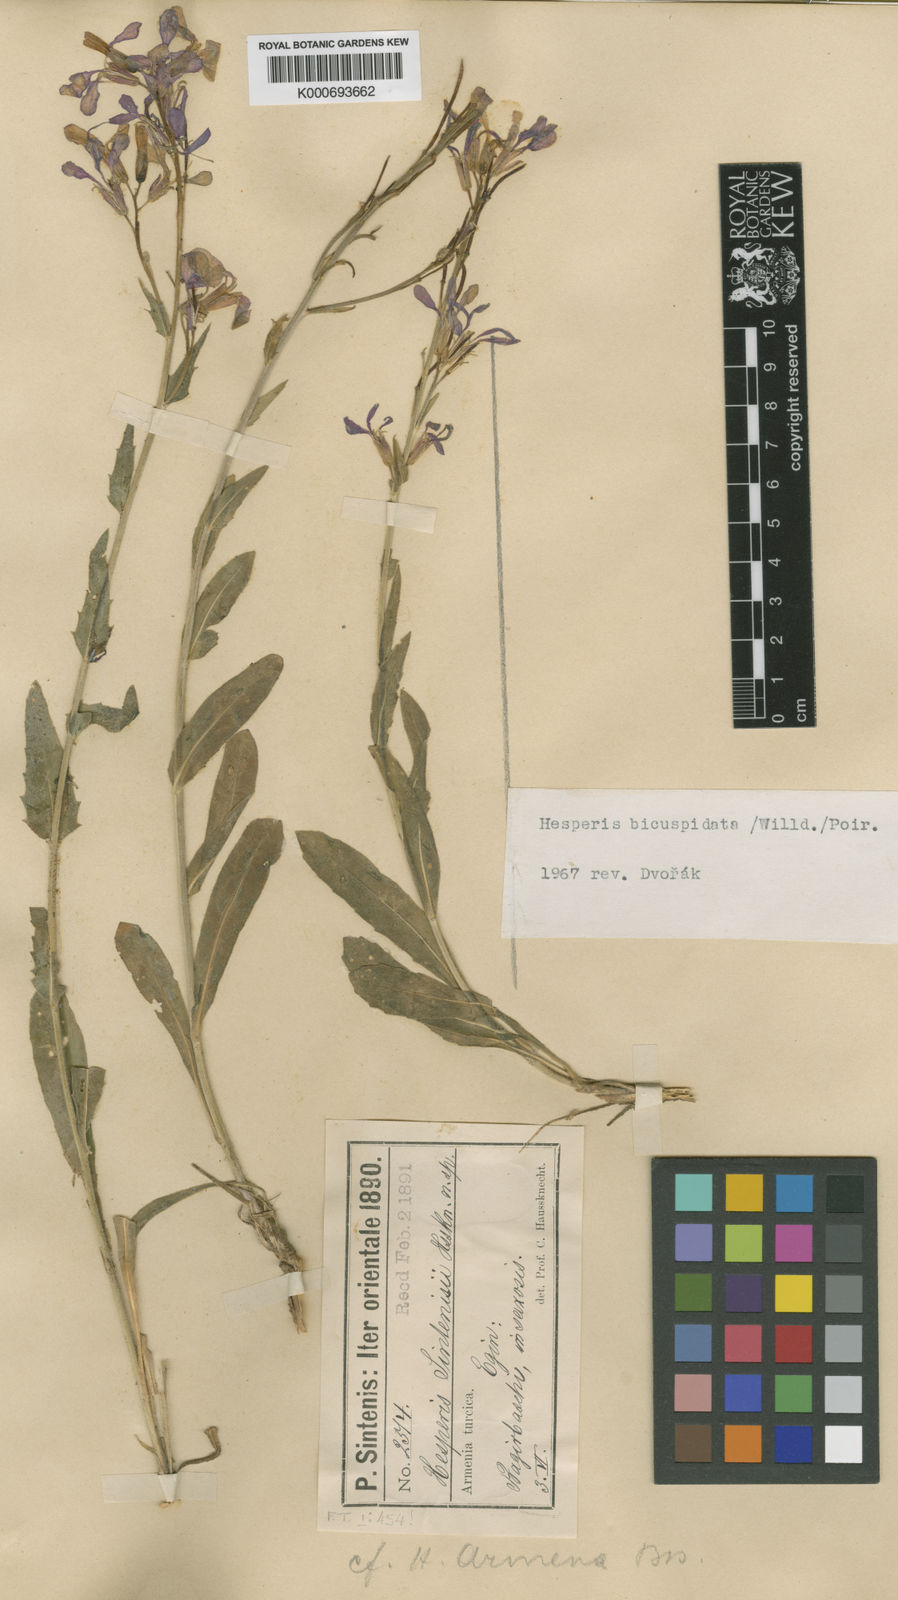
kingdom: Plantae
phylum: Tracheophyta
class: Magnoliopsida
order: Brassicales
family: Brassicaceae
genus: Hesperis
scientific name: Hesperis bicuspidata
